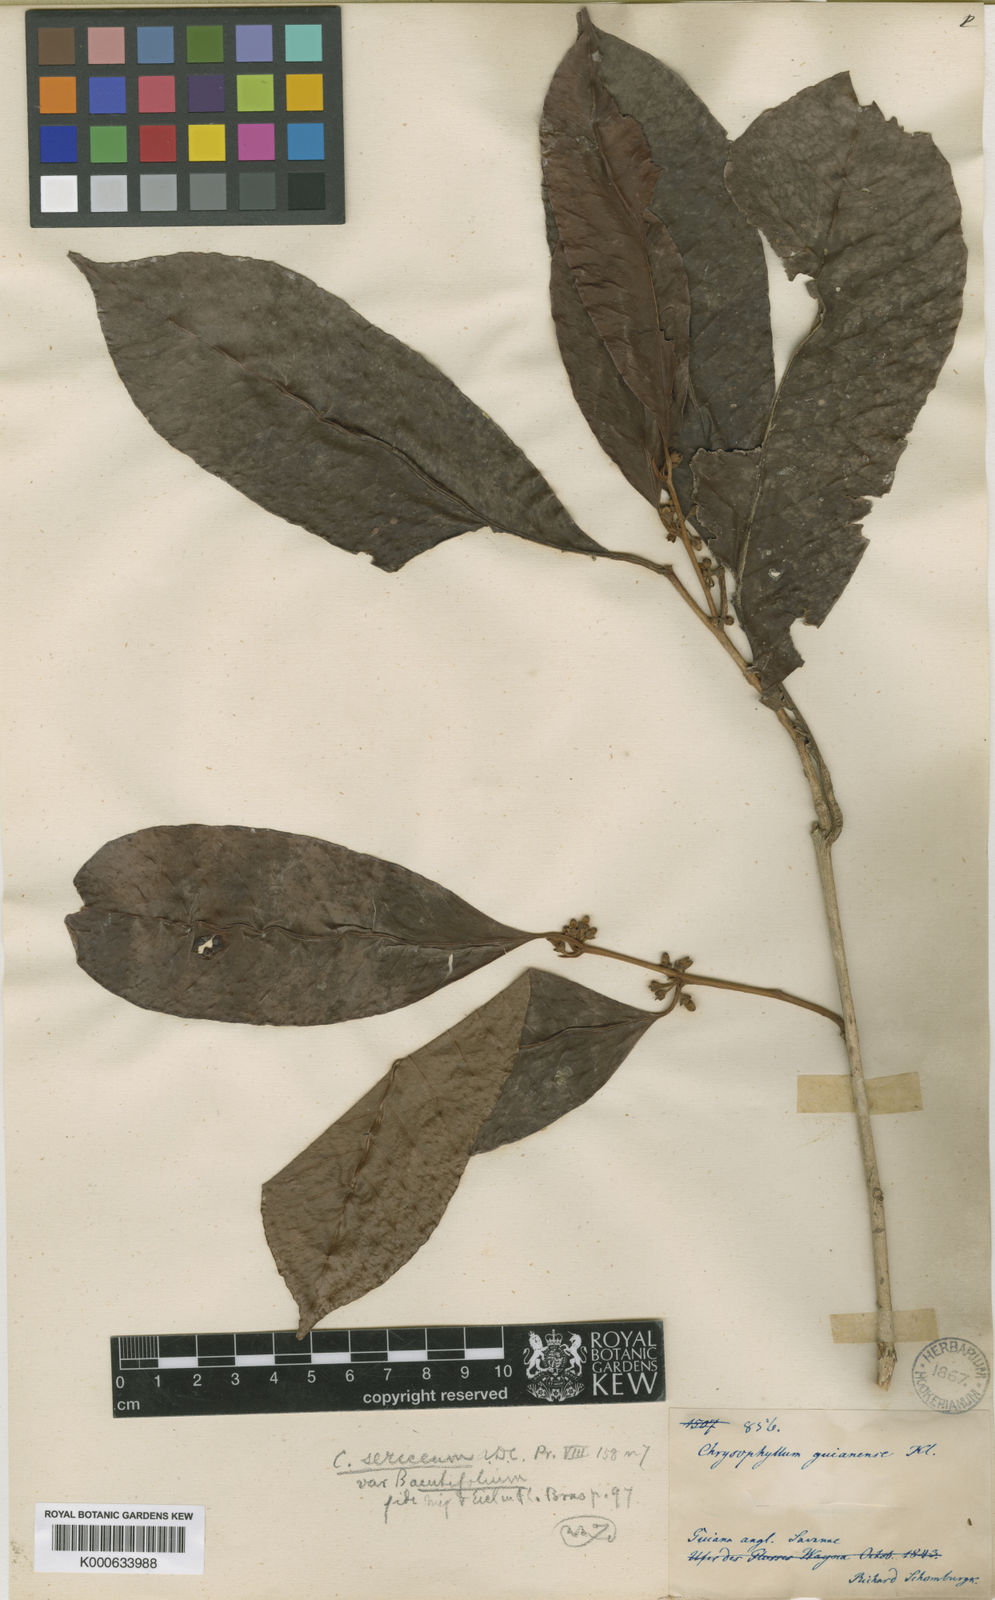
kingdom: Plantae
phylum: Tracheophyta
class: Magnoliopsida
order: Ericales
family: Sapotaceae
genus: Chrysophyllum
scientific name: Chrysophyllum argenteum
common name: Smooth star apple
